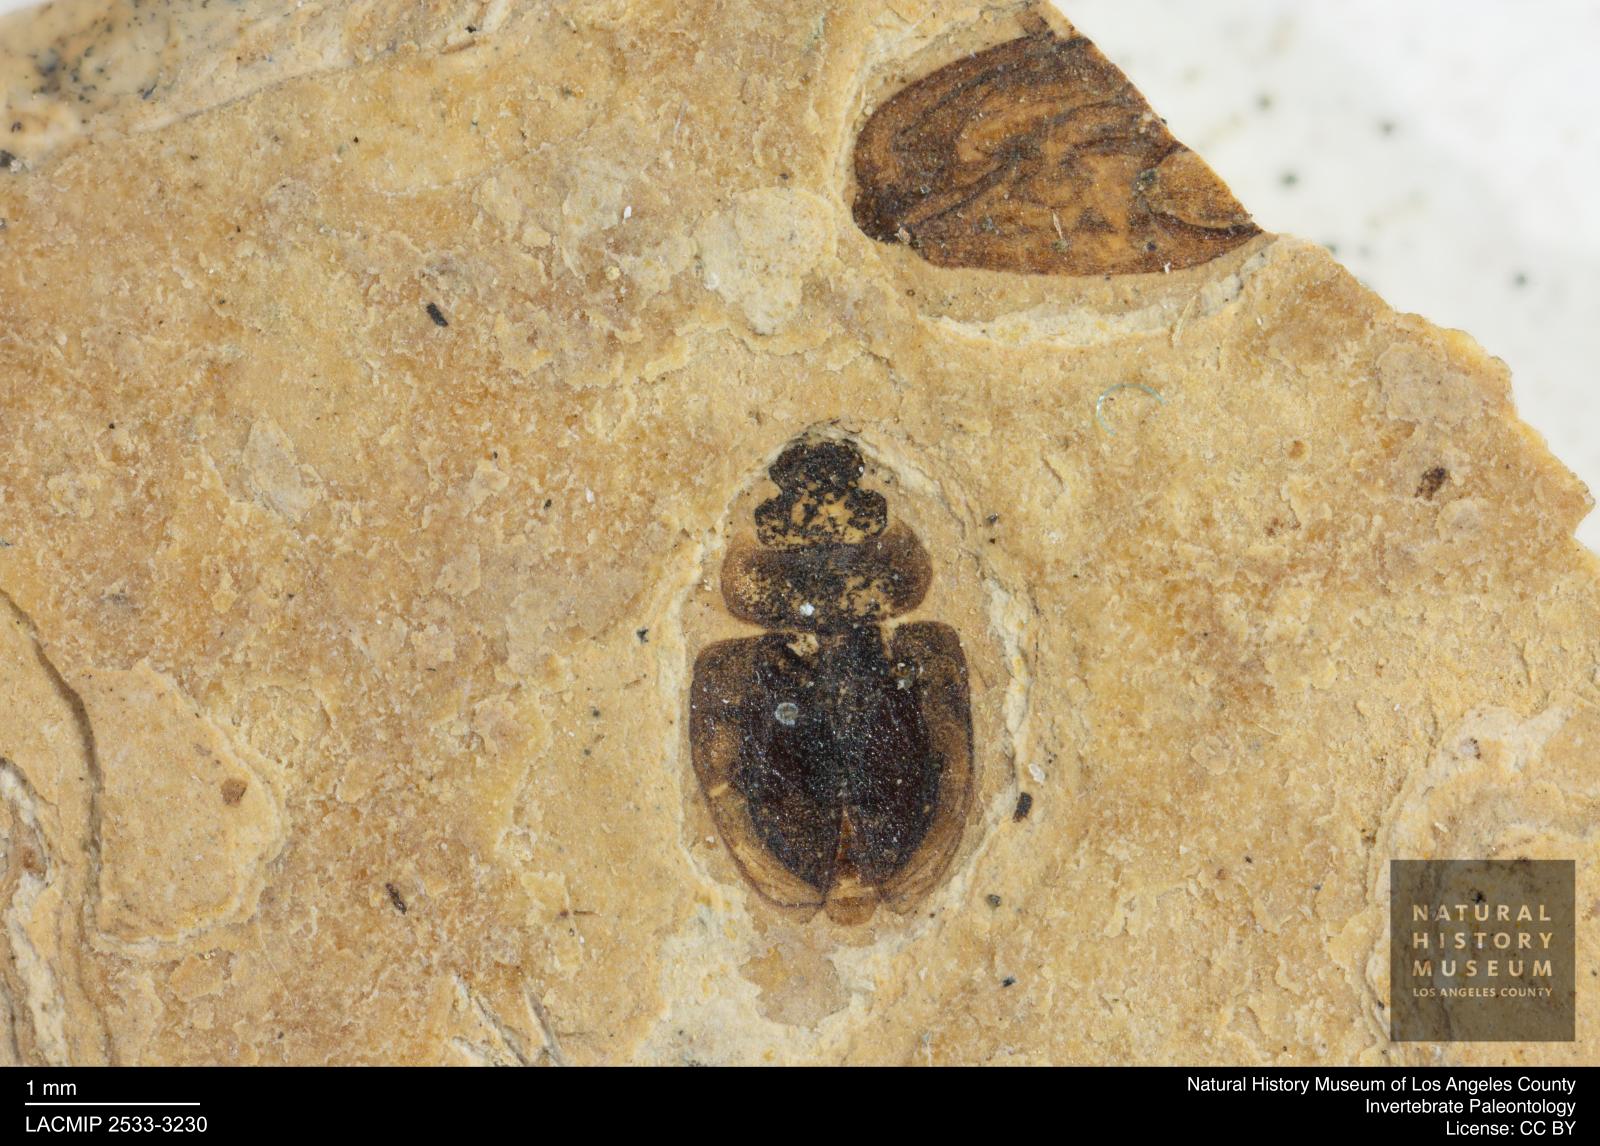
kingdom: Animalia
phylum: Arthropoda
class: Insecta
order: Coleoptera
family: Hydrophilidae
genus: Paracymus
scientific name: Paracymus excitatus
